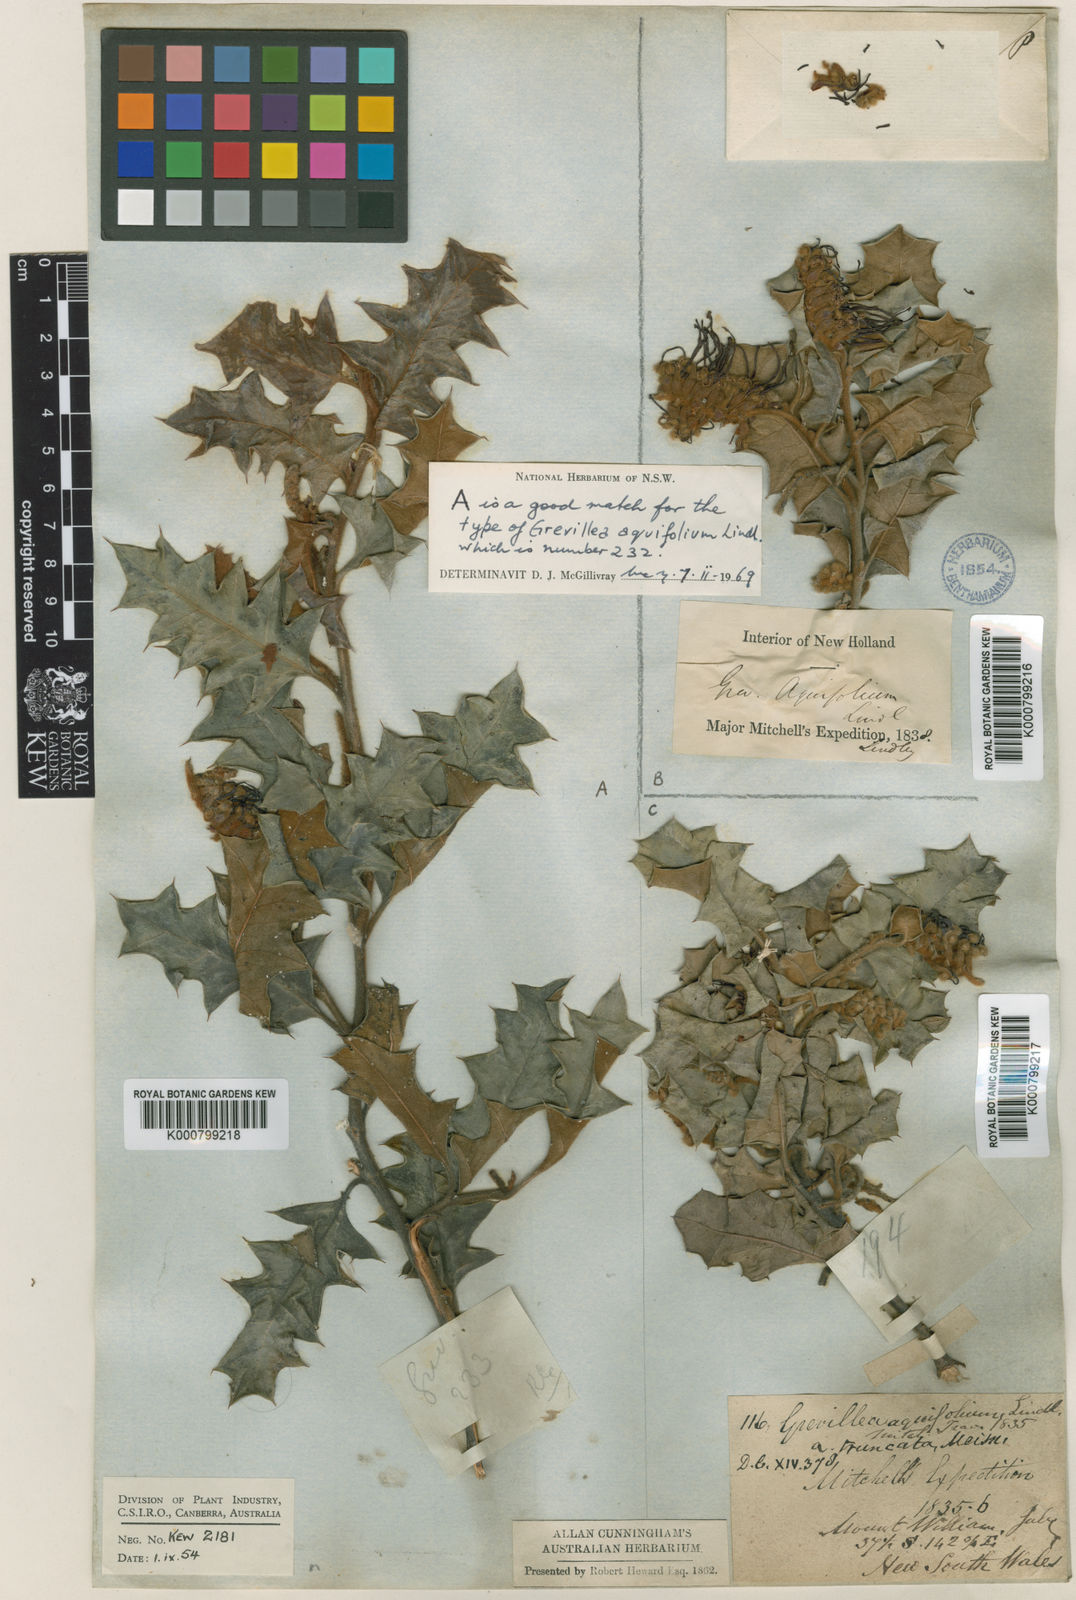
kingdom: Plantae
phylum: Tracheophyta
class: Magnoliopsida
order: Proteales
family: Proteaceae
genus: Grevillea
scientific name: Grevillea aquifolium
